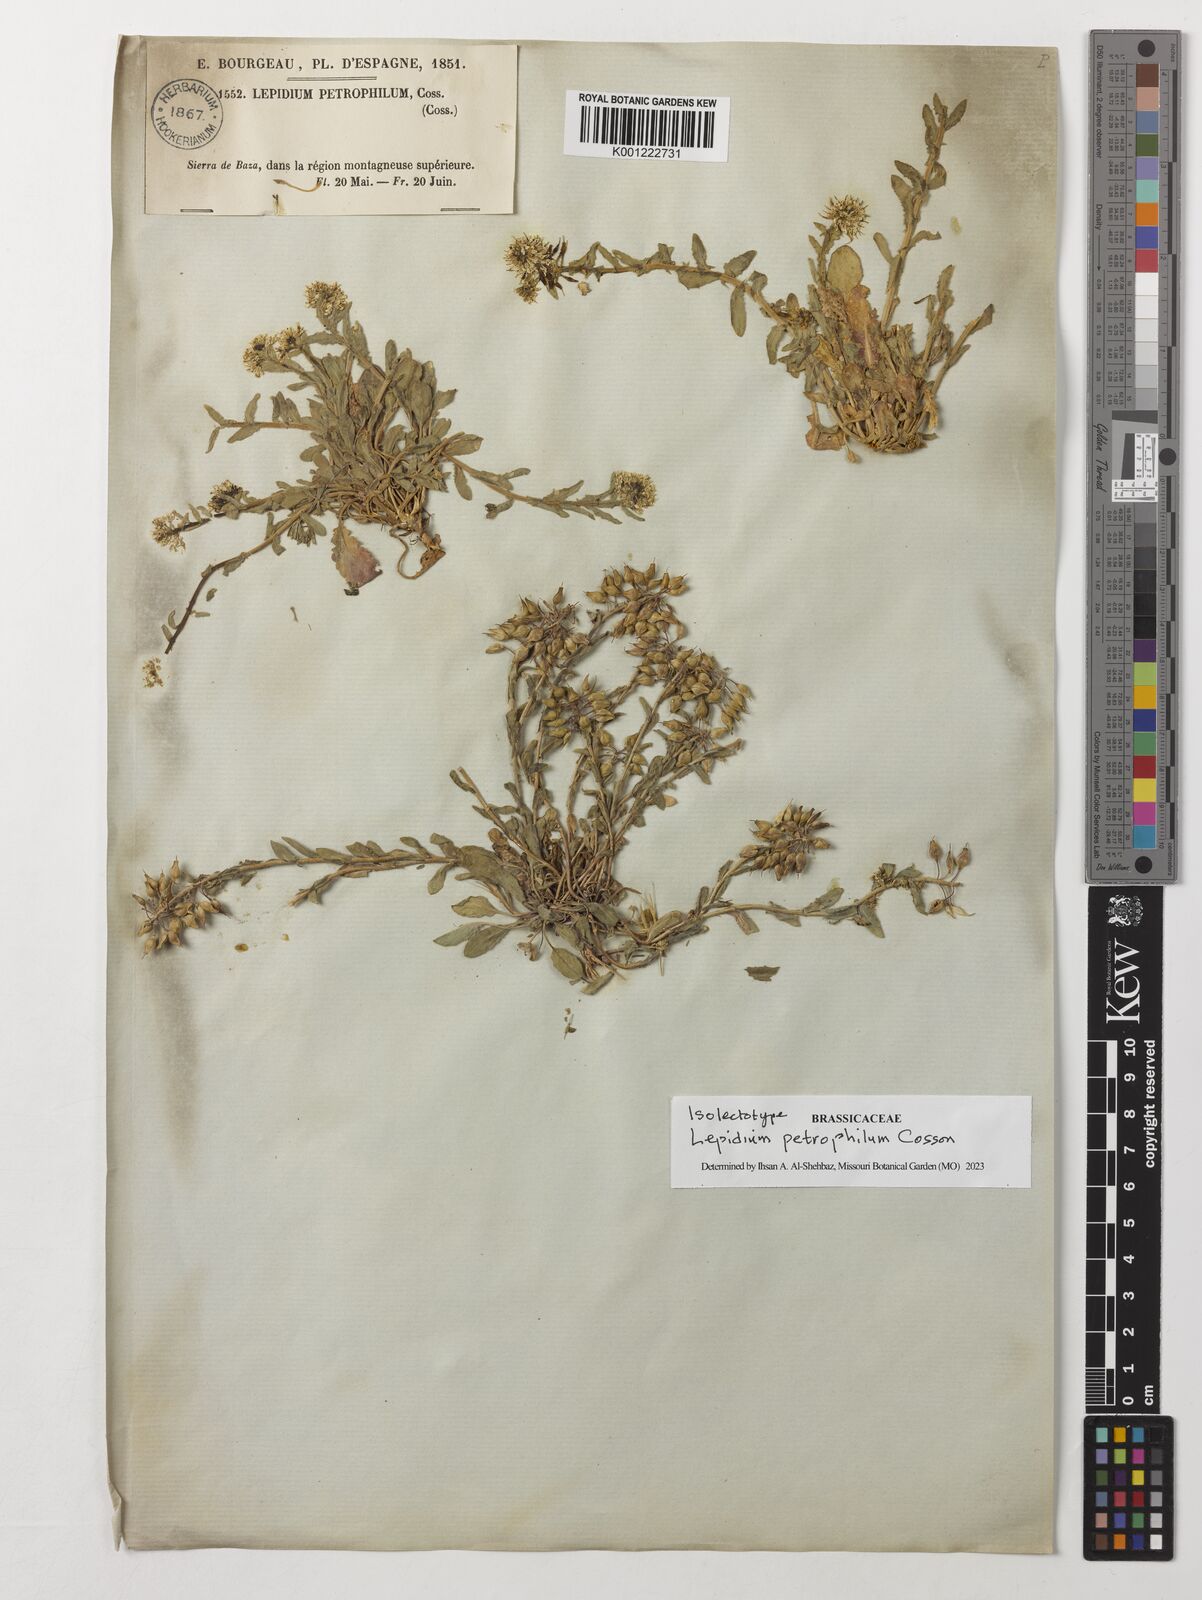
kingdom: Plantae
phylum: Tracheophyta
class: Magnoliopsida
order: Brassicales
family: Brassicaceae
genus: Lepidium
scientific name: Lepidium hirtum
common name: Mediterranean pepperweed
